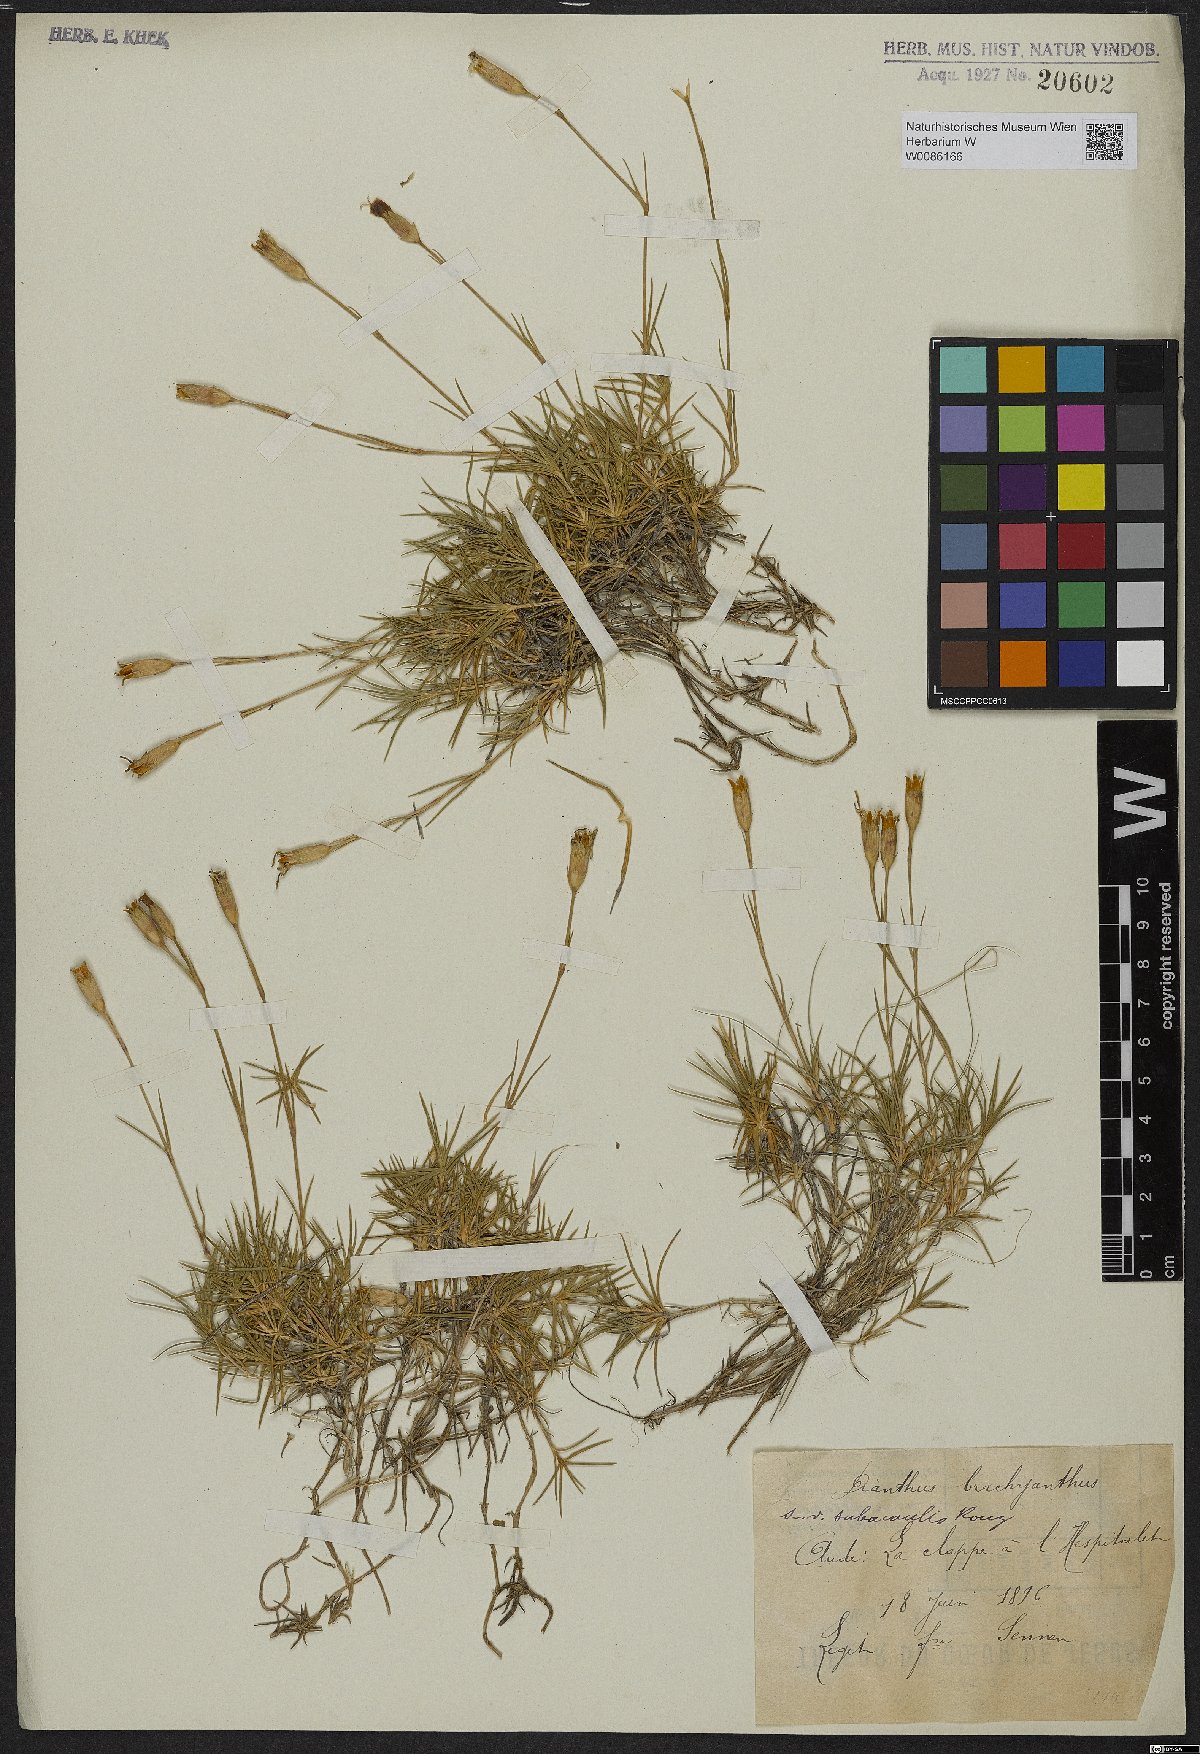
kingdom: Plantae
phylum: Tracheophyta
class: Magnoliopsida
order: Caryophyllales
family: Caryophyllaceae
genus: Dianthus
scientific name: Dianthus subacaulis
